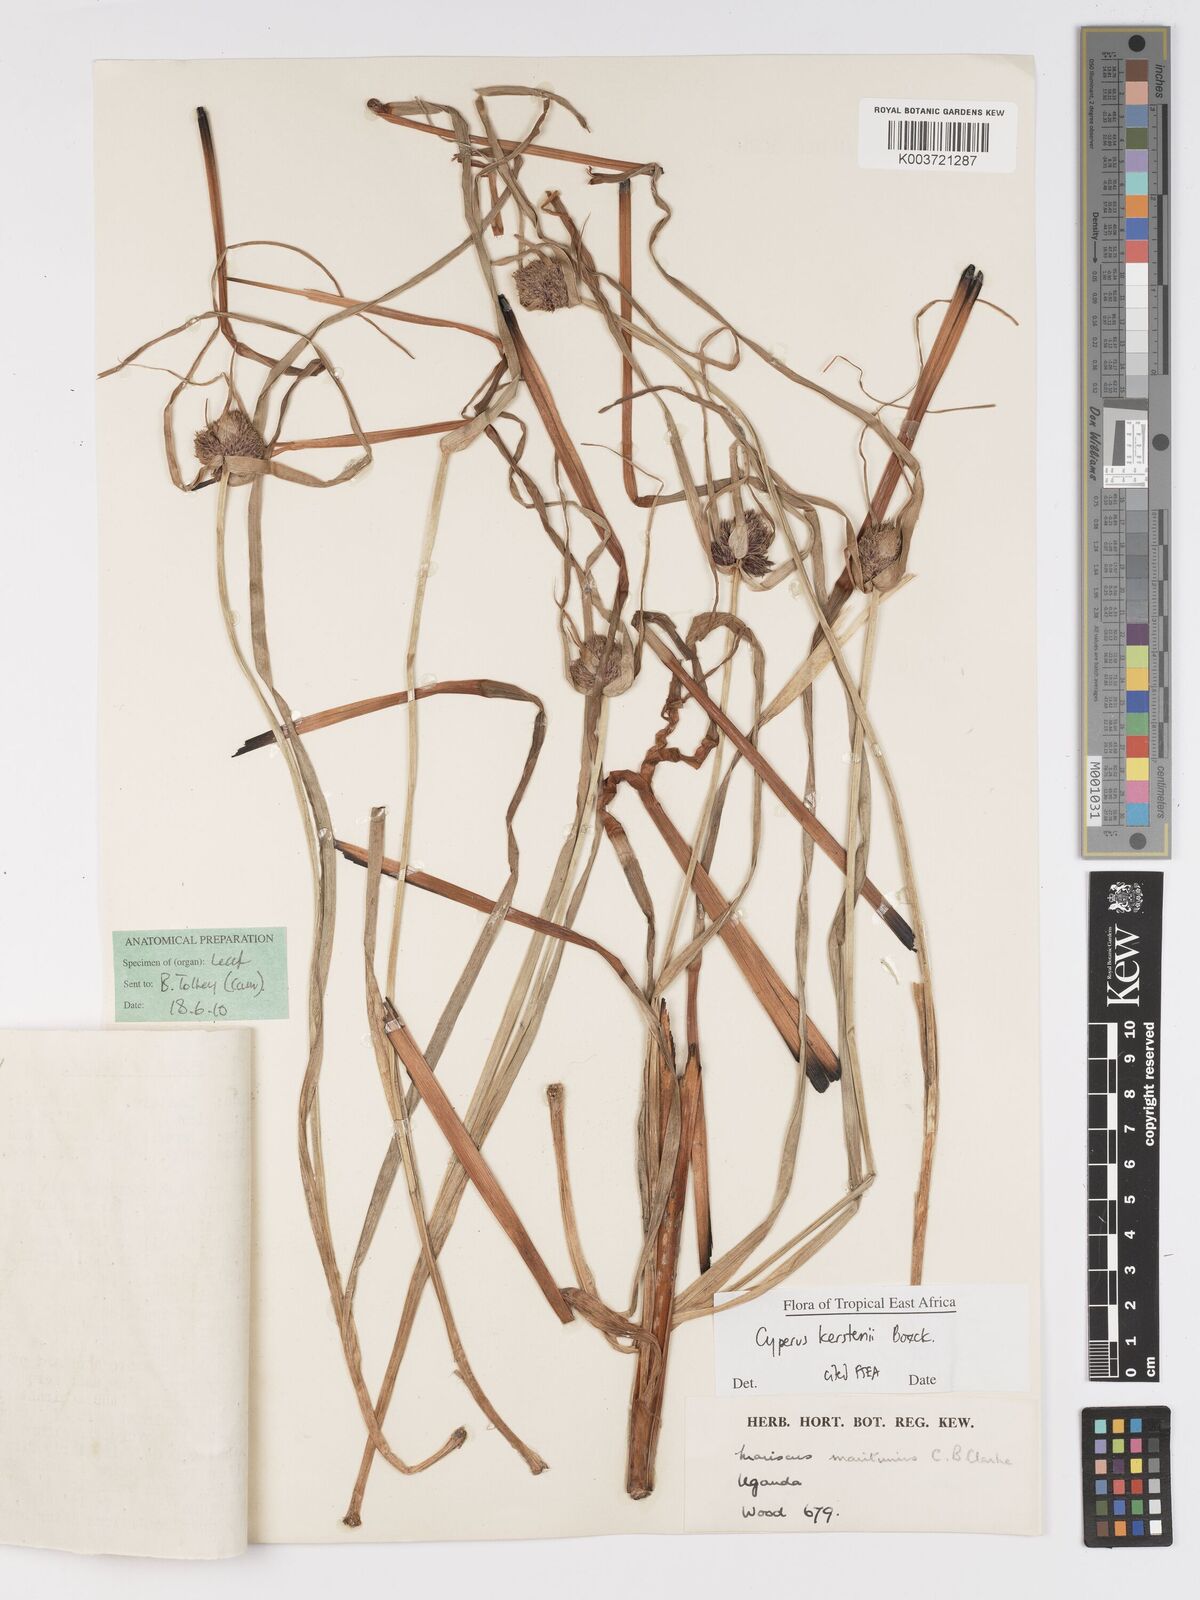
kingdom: Plantae
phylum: Tracheophyta
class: Liliopsida
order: Poales
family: Cyperaceae
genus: Cyperus
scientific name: Cyperus kerstenii
